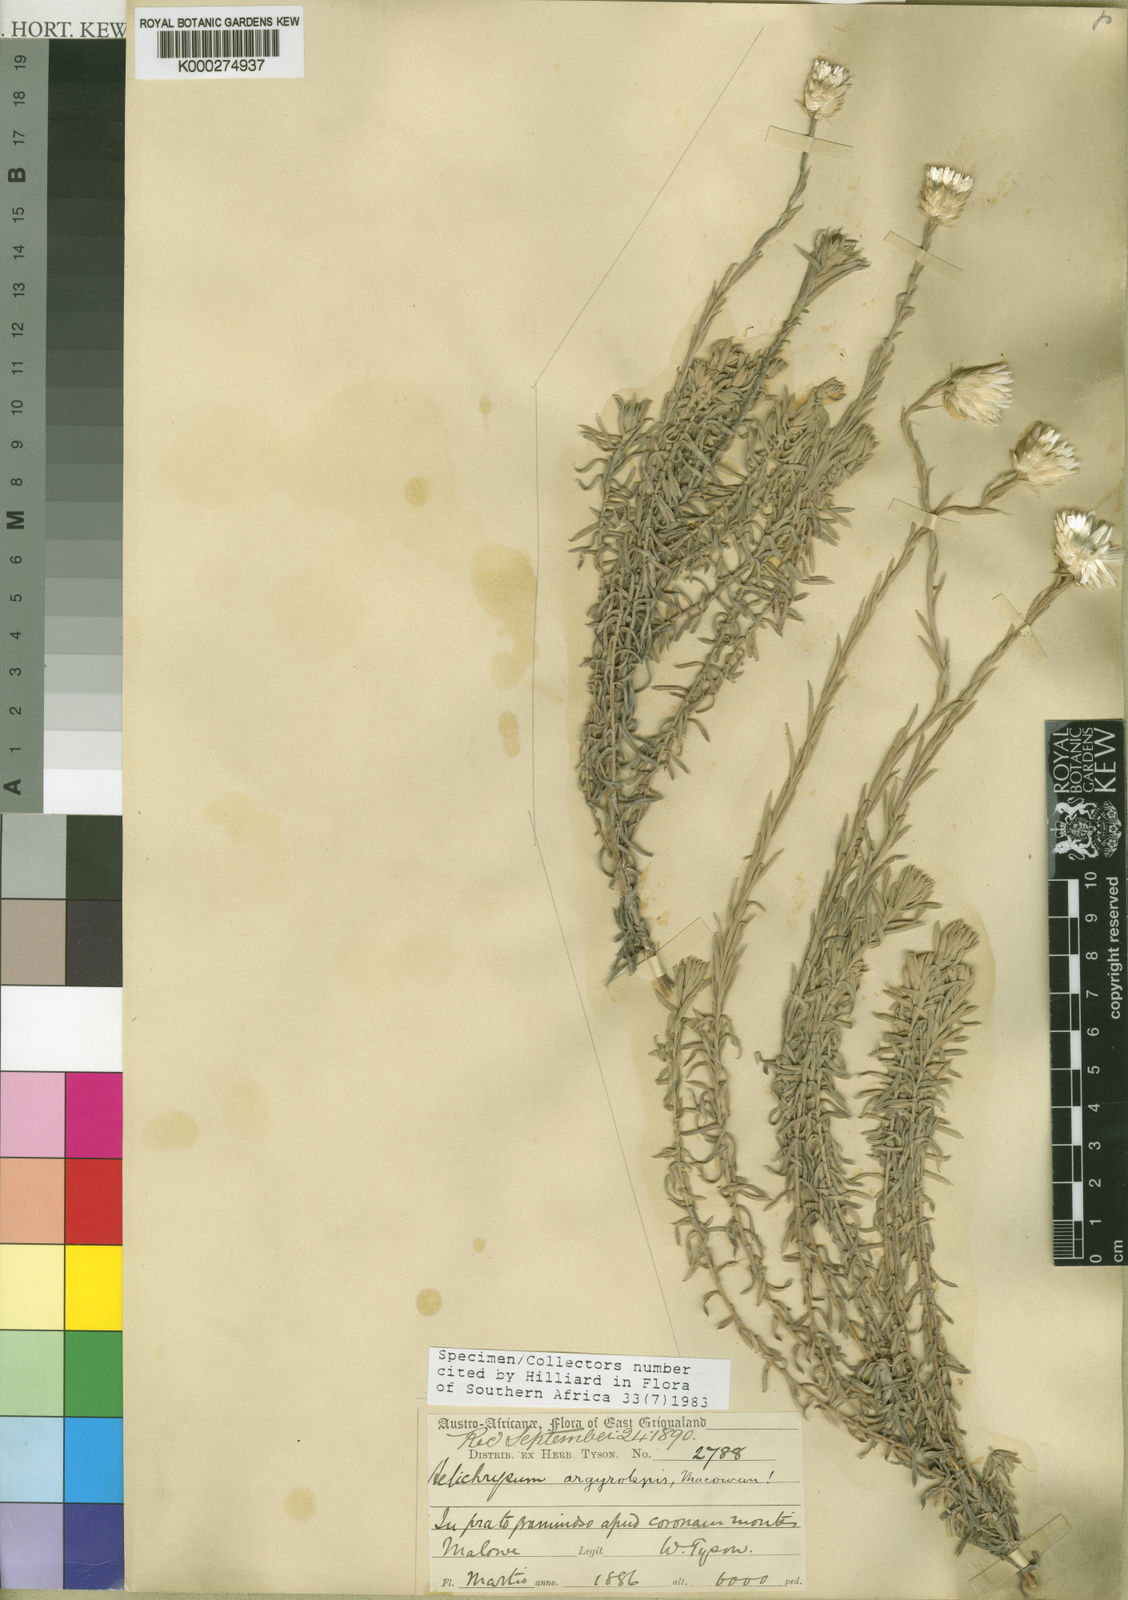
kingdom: Plantae
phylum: Tracheophyta
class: Magnoliopsida
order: Asterales
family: Asteraceae
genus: Helichrysum
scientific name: Helichrysum argyrolepis
